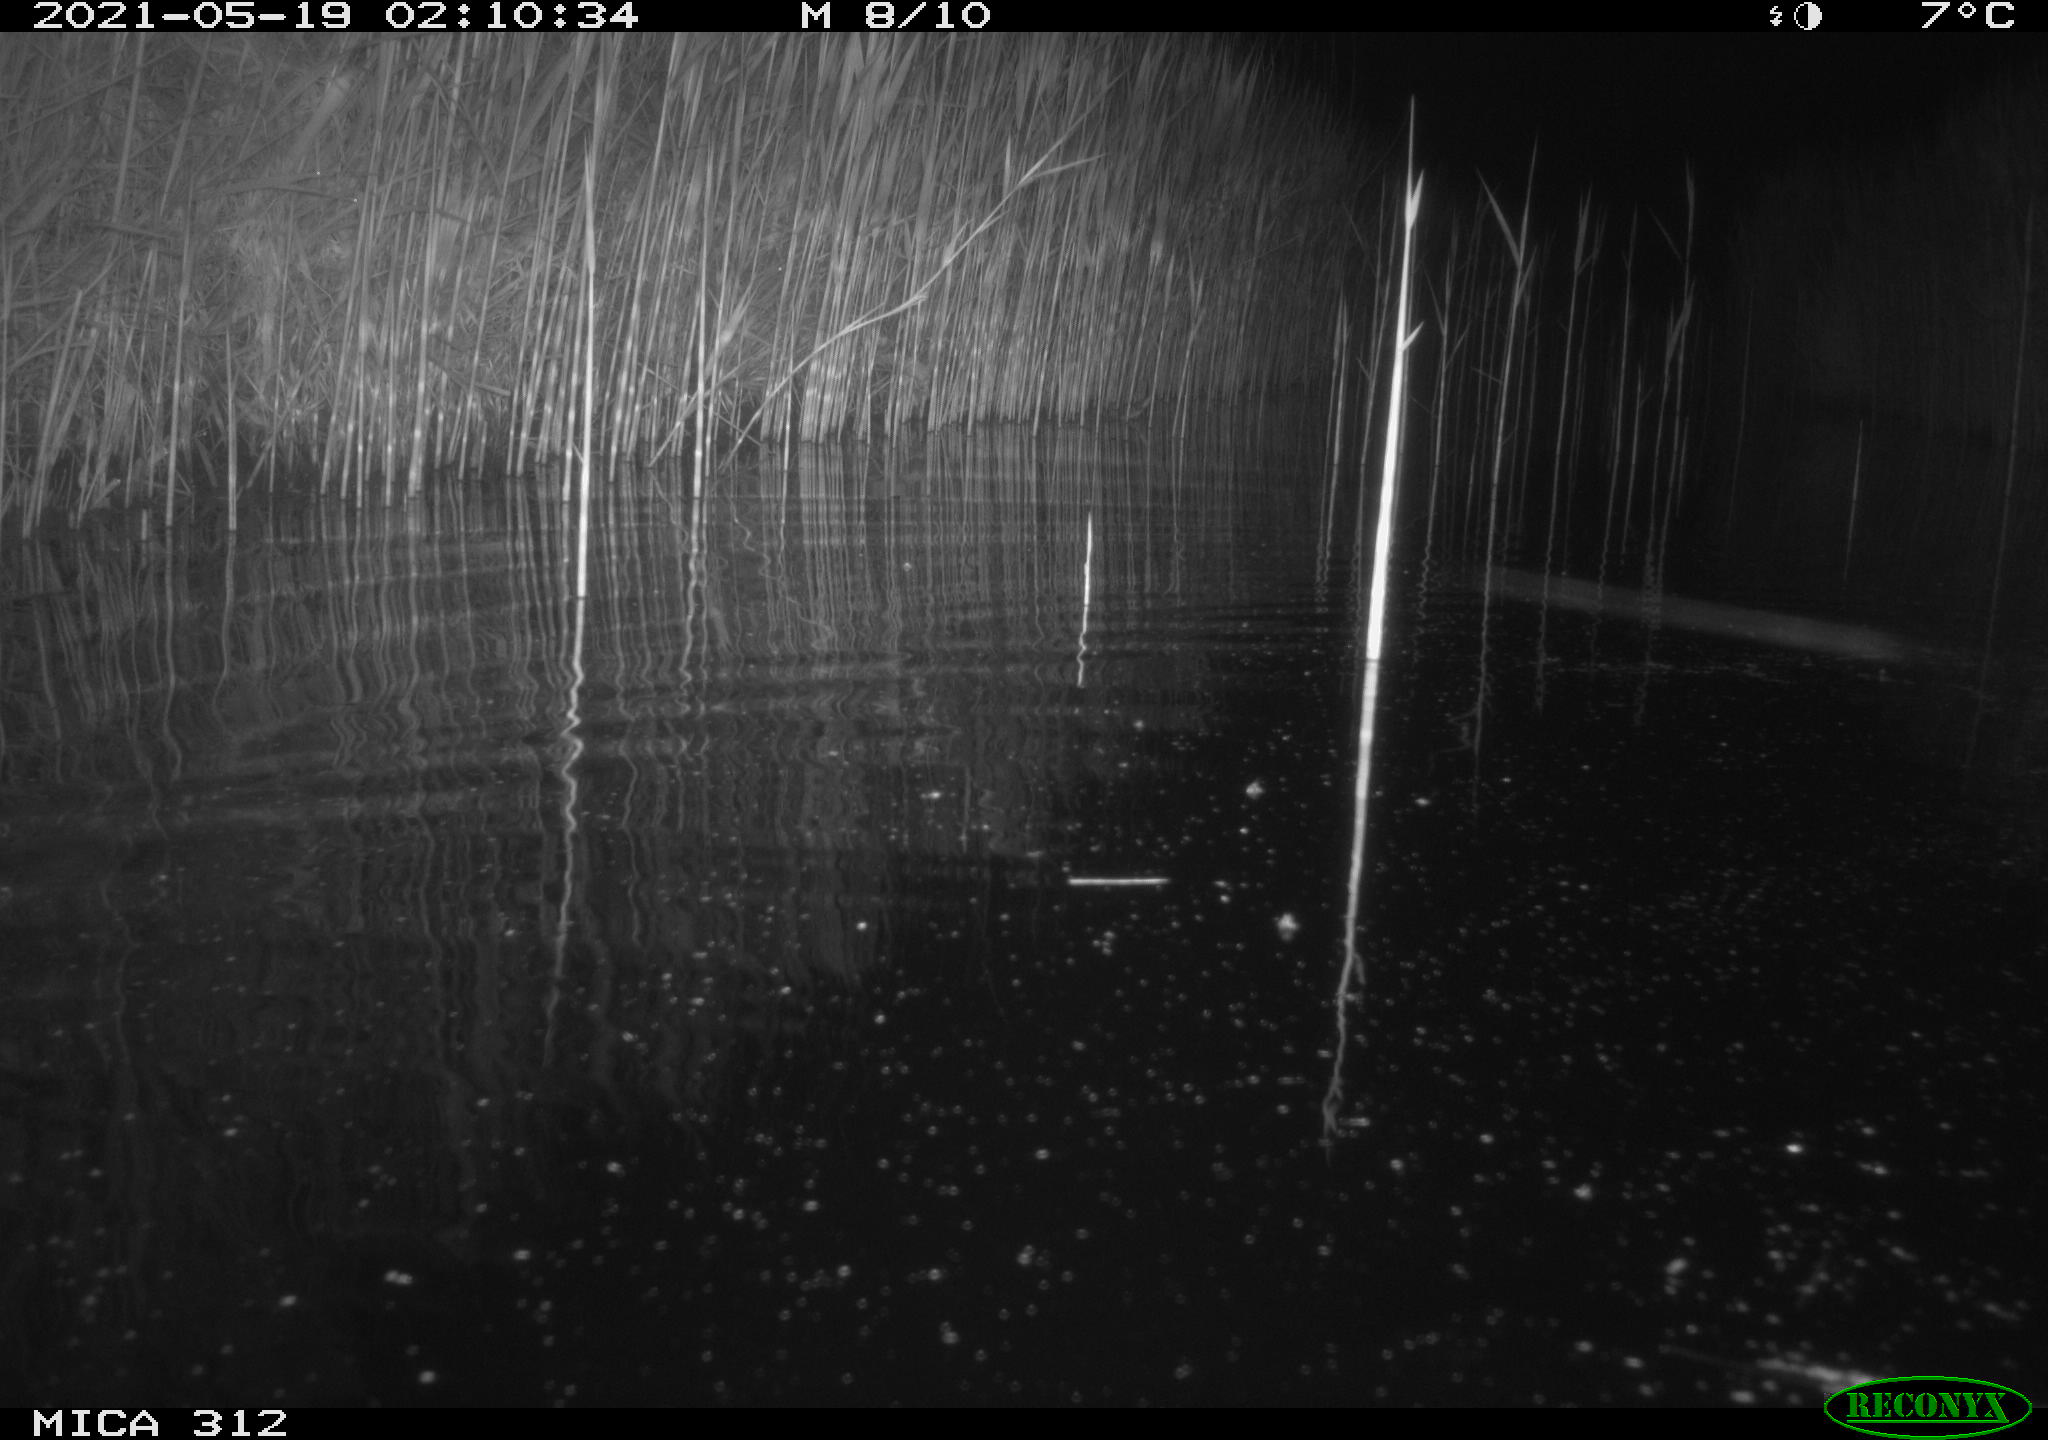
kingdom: Animalia
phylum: Chordata
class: Mammalia
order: Rodentia
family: Muridae
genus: Rattus
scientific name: Rattus norvegicus
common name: Brown rat
